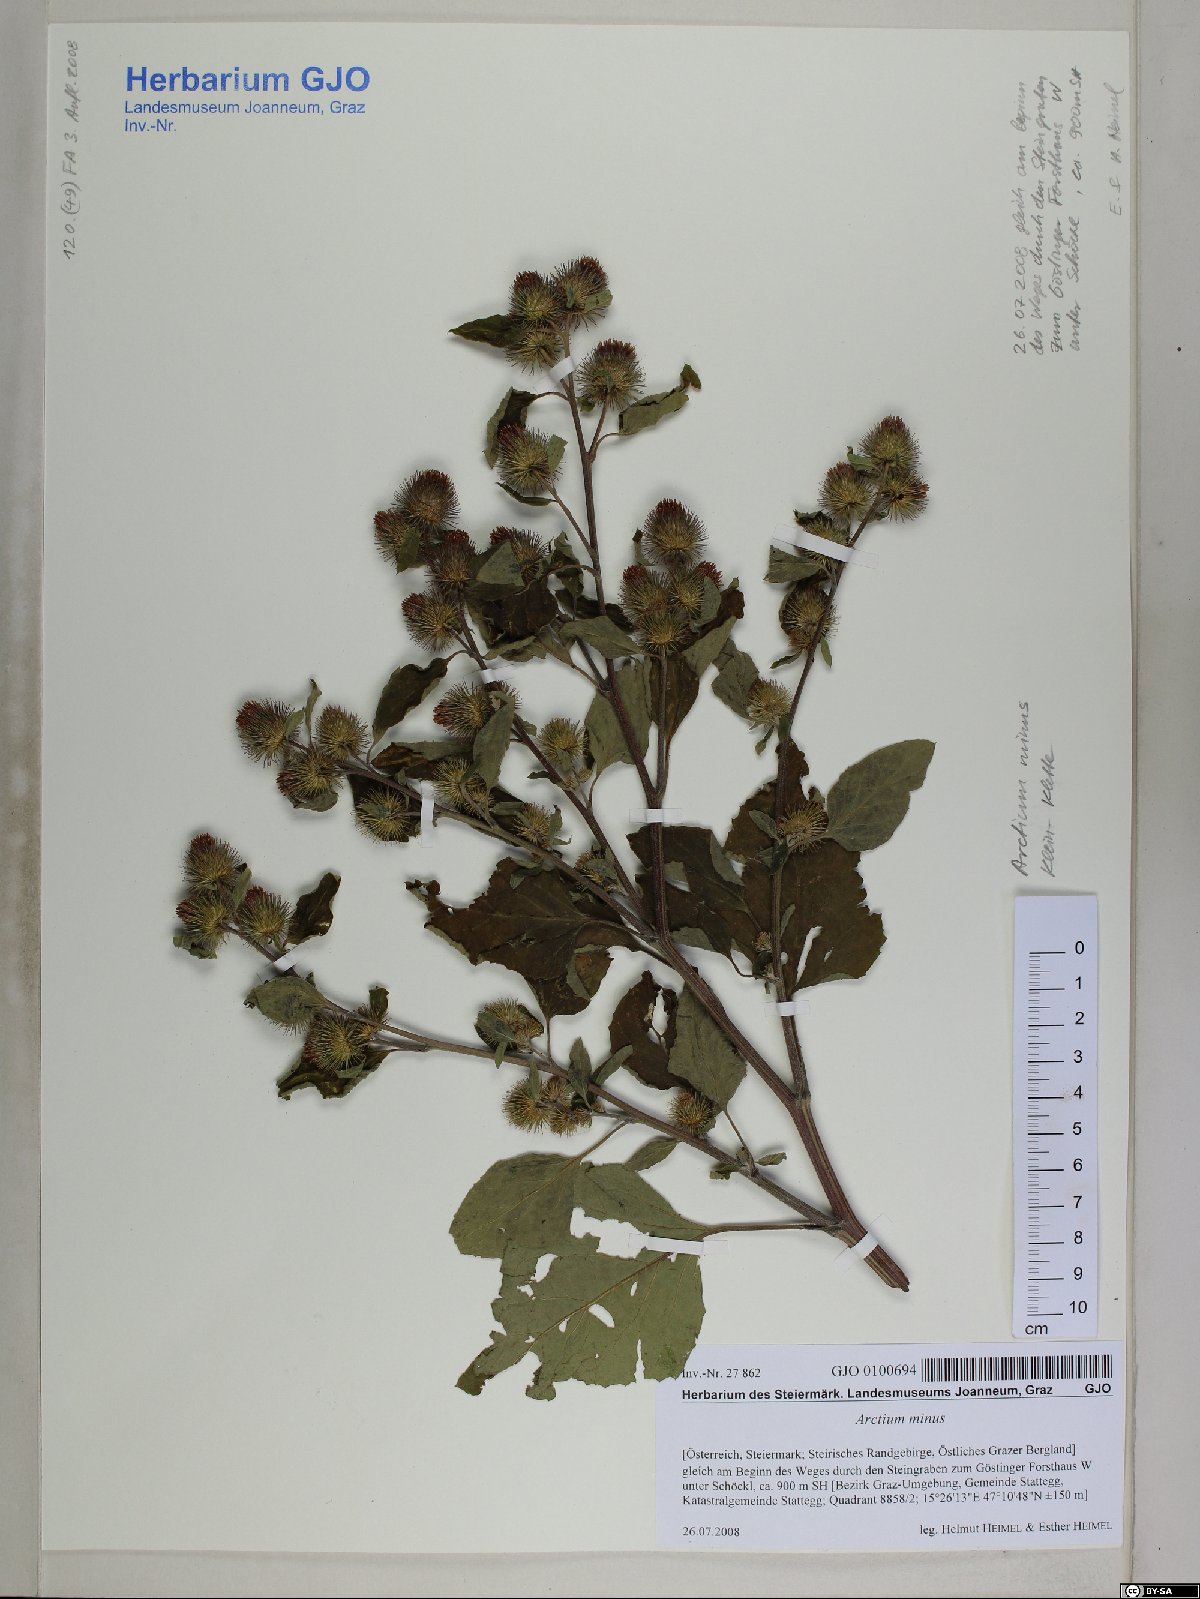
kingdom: Plantae
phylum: Tracheophyta
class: Magnoliopsida
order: Asterales
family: Asteraceae
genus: Arctium
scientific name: Arctium minus
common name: Lesser burdock
